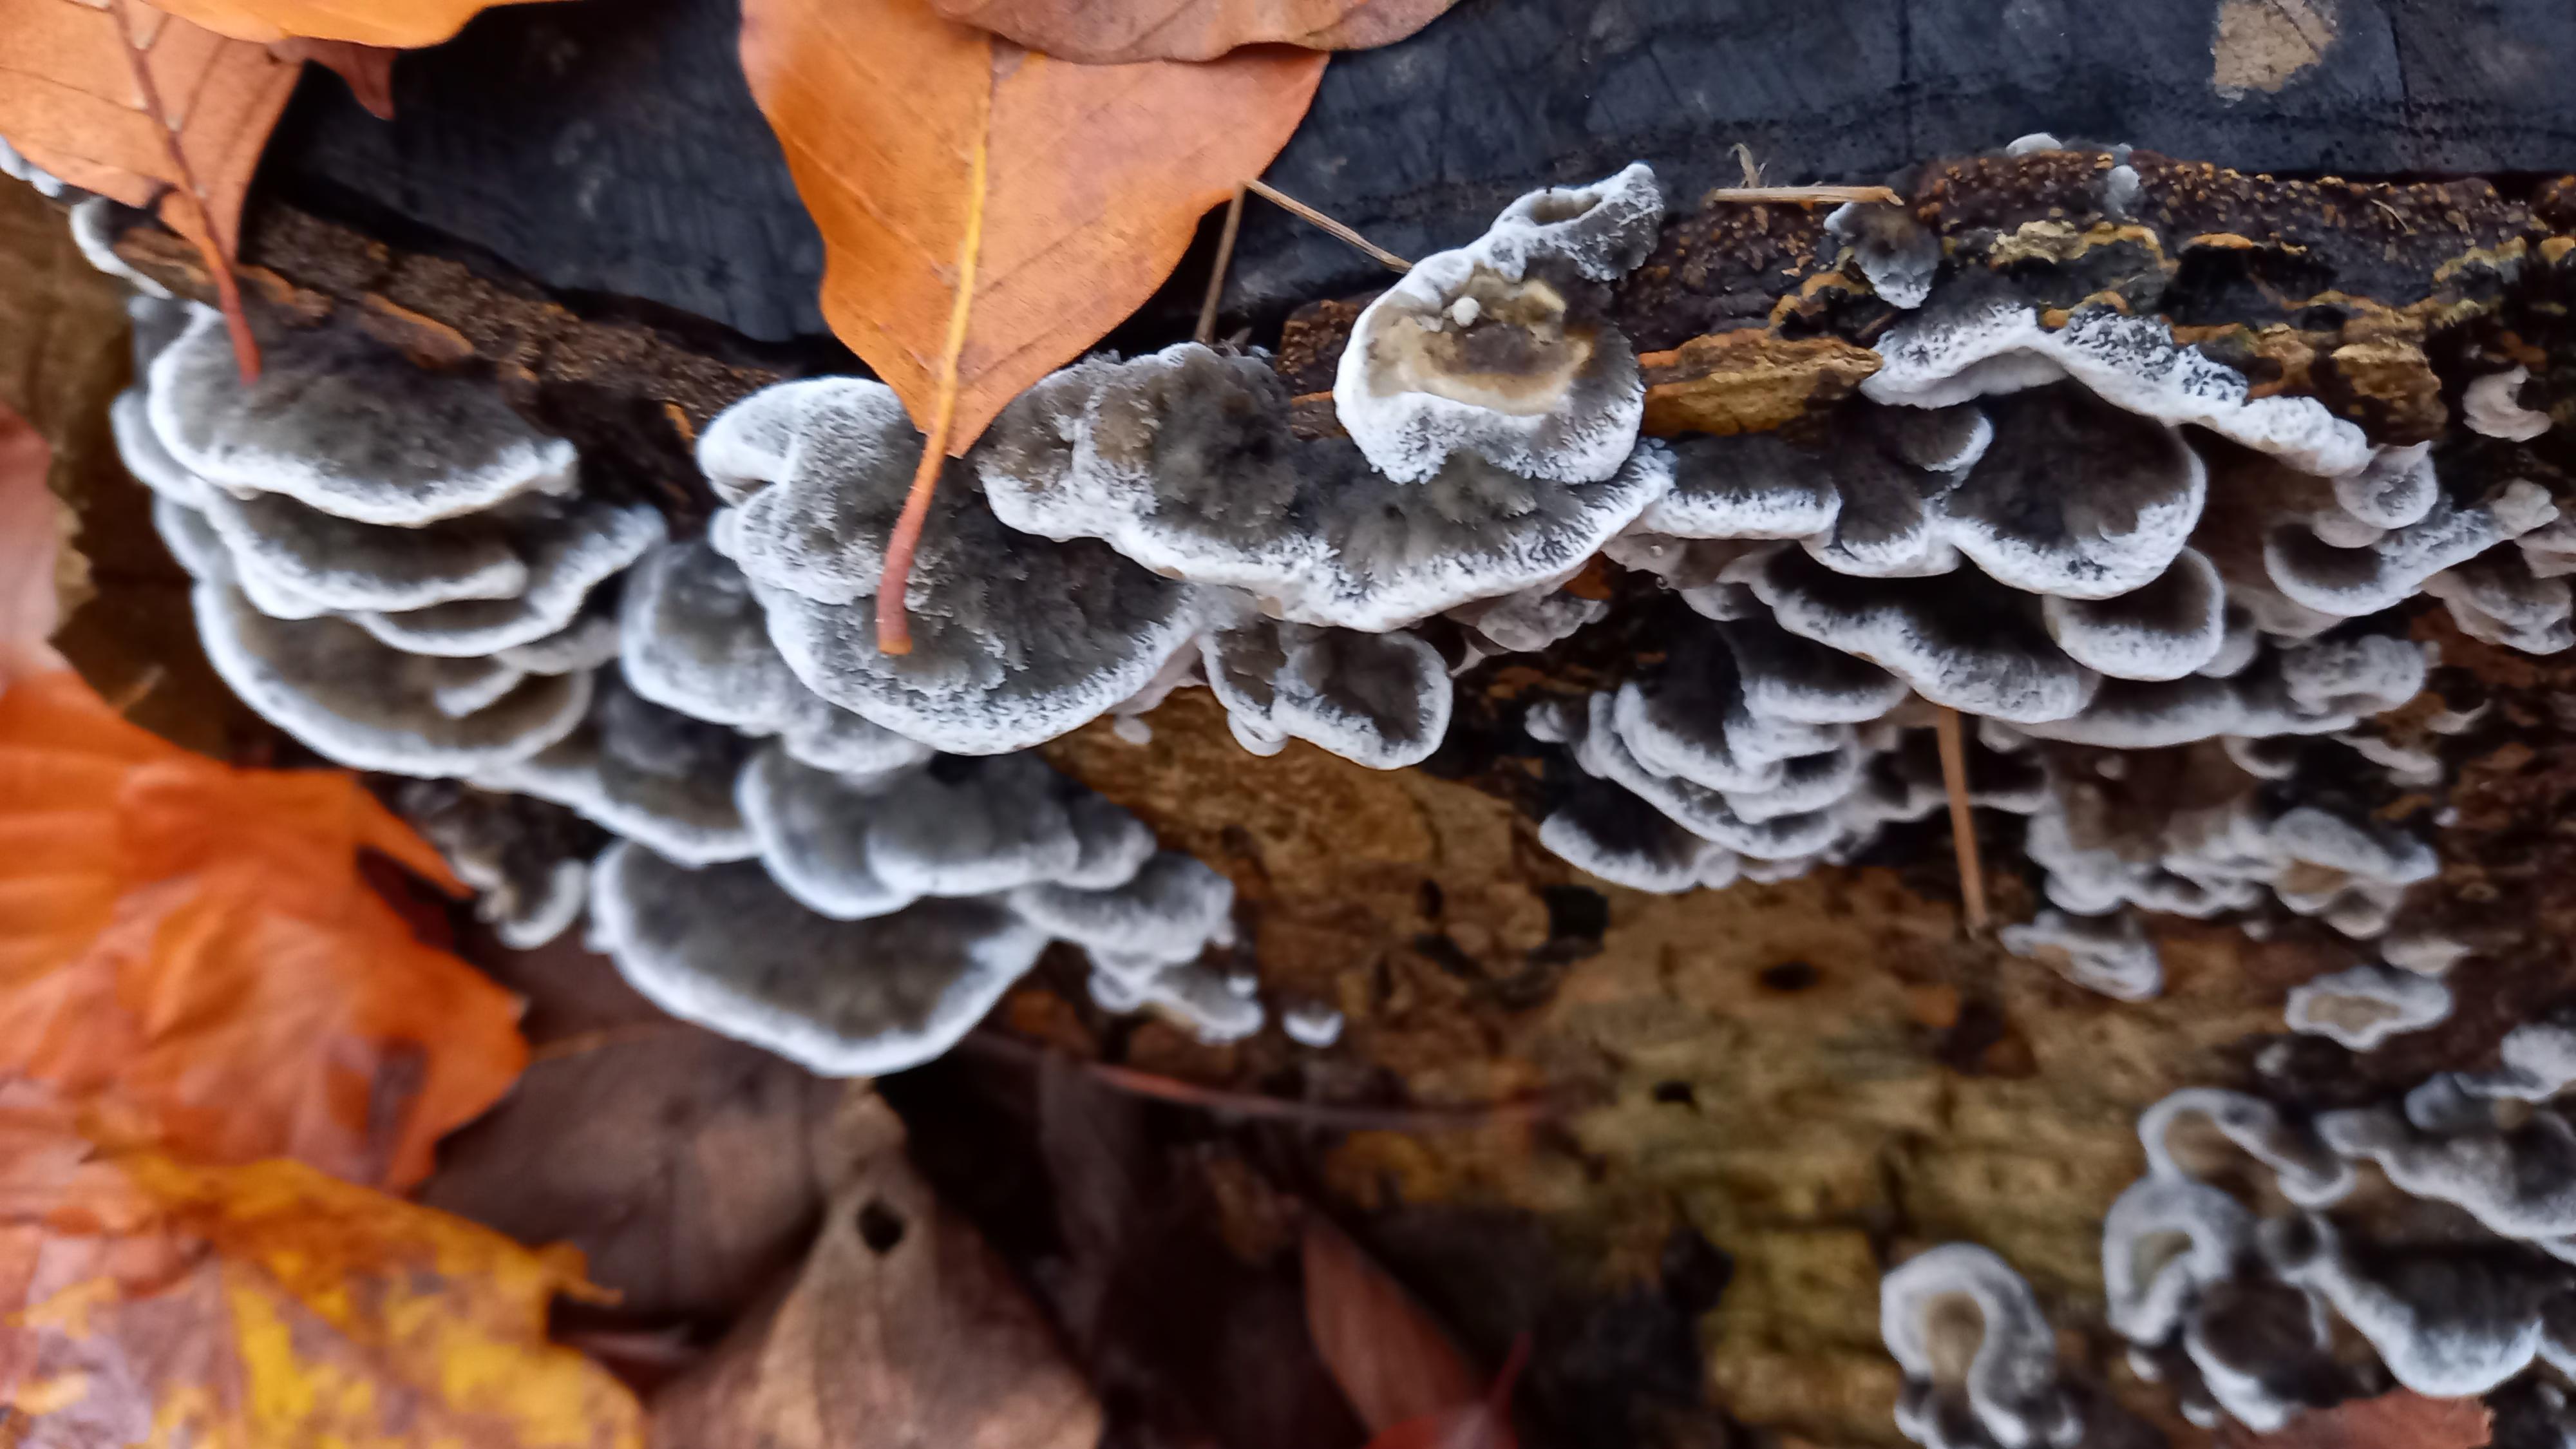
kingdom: Fungi
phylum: Basidiomycota
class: Agaricomycetes
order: Polyporales
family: Phanerochaetaceae
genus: Bjerkandera
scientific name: Bjerkandera adusta
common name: sveden sodporesvamp
